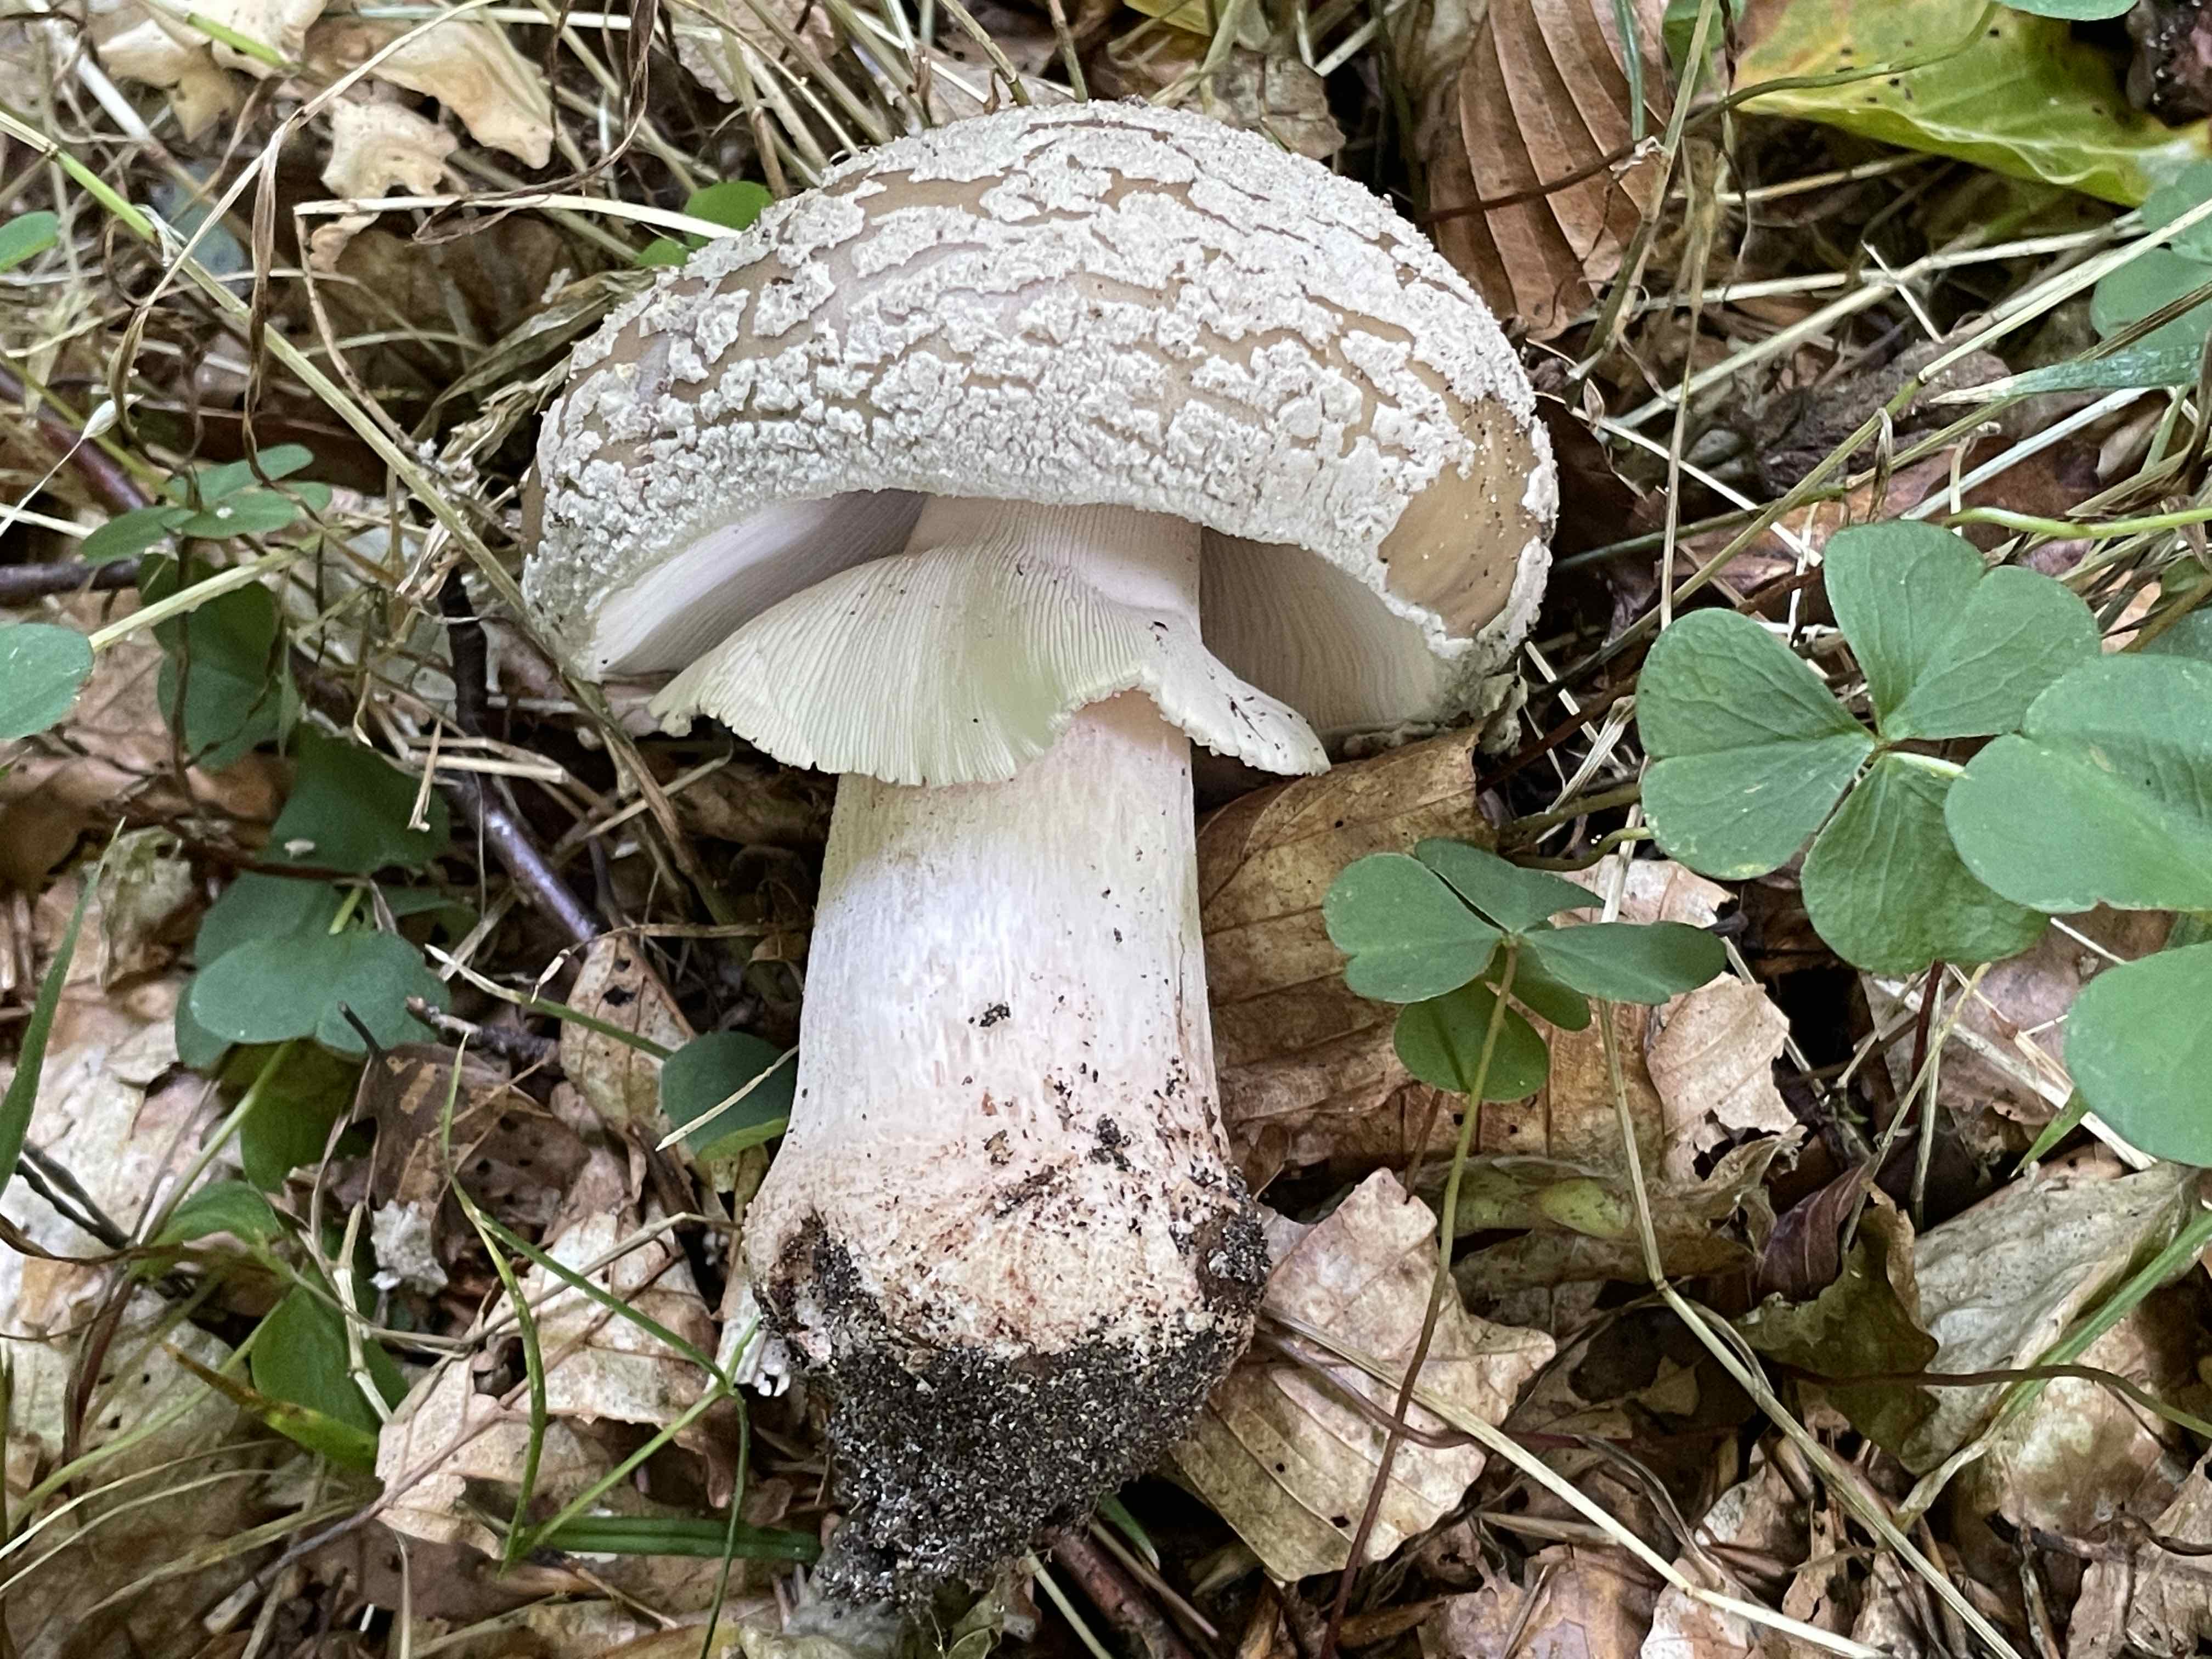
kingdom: Fungi
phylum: Basidiomycota
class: Agaricomycetes
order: Agaricales
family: Amanitaceae
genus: Amanita
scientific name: Amanita rubescens
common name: rødmende fluesvamp
